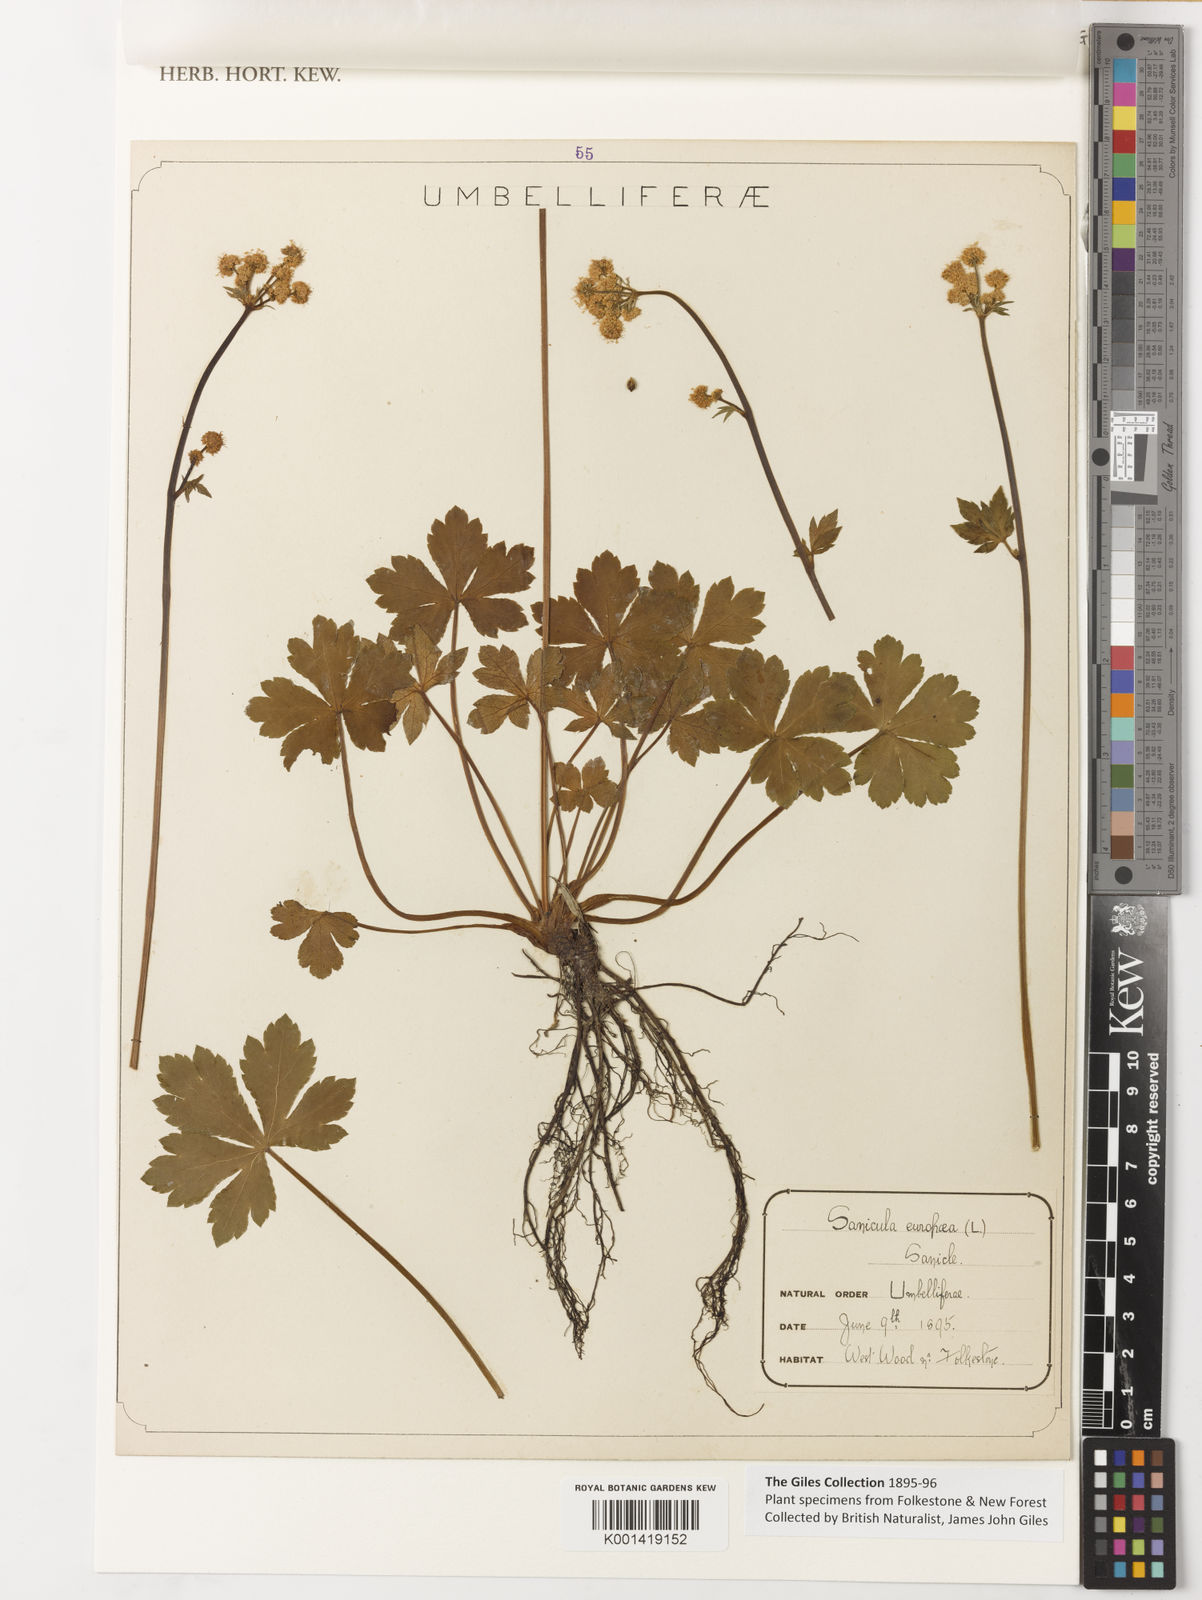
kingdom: Plantae
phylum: Tracheophyta
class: Magnoliopsida
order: Apiales
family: Apiaceae
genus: Sanicula
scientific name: Sanicula
